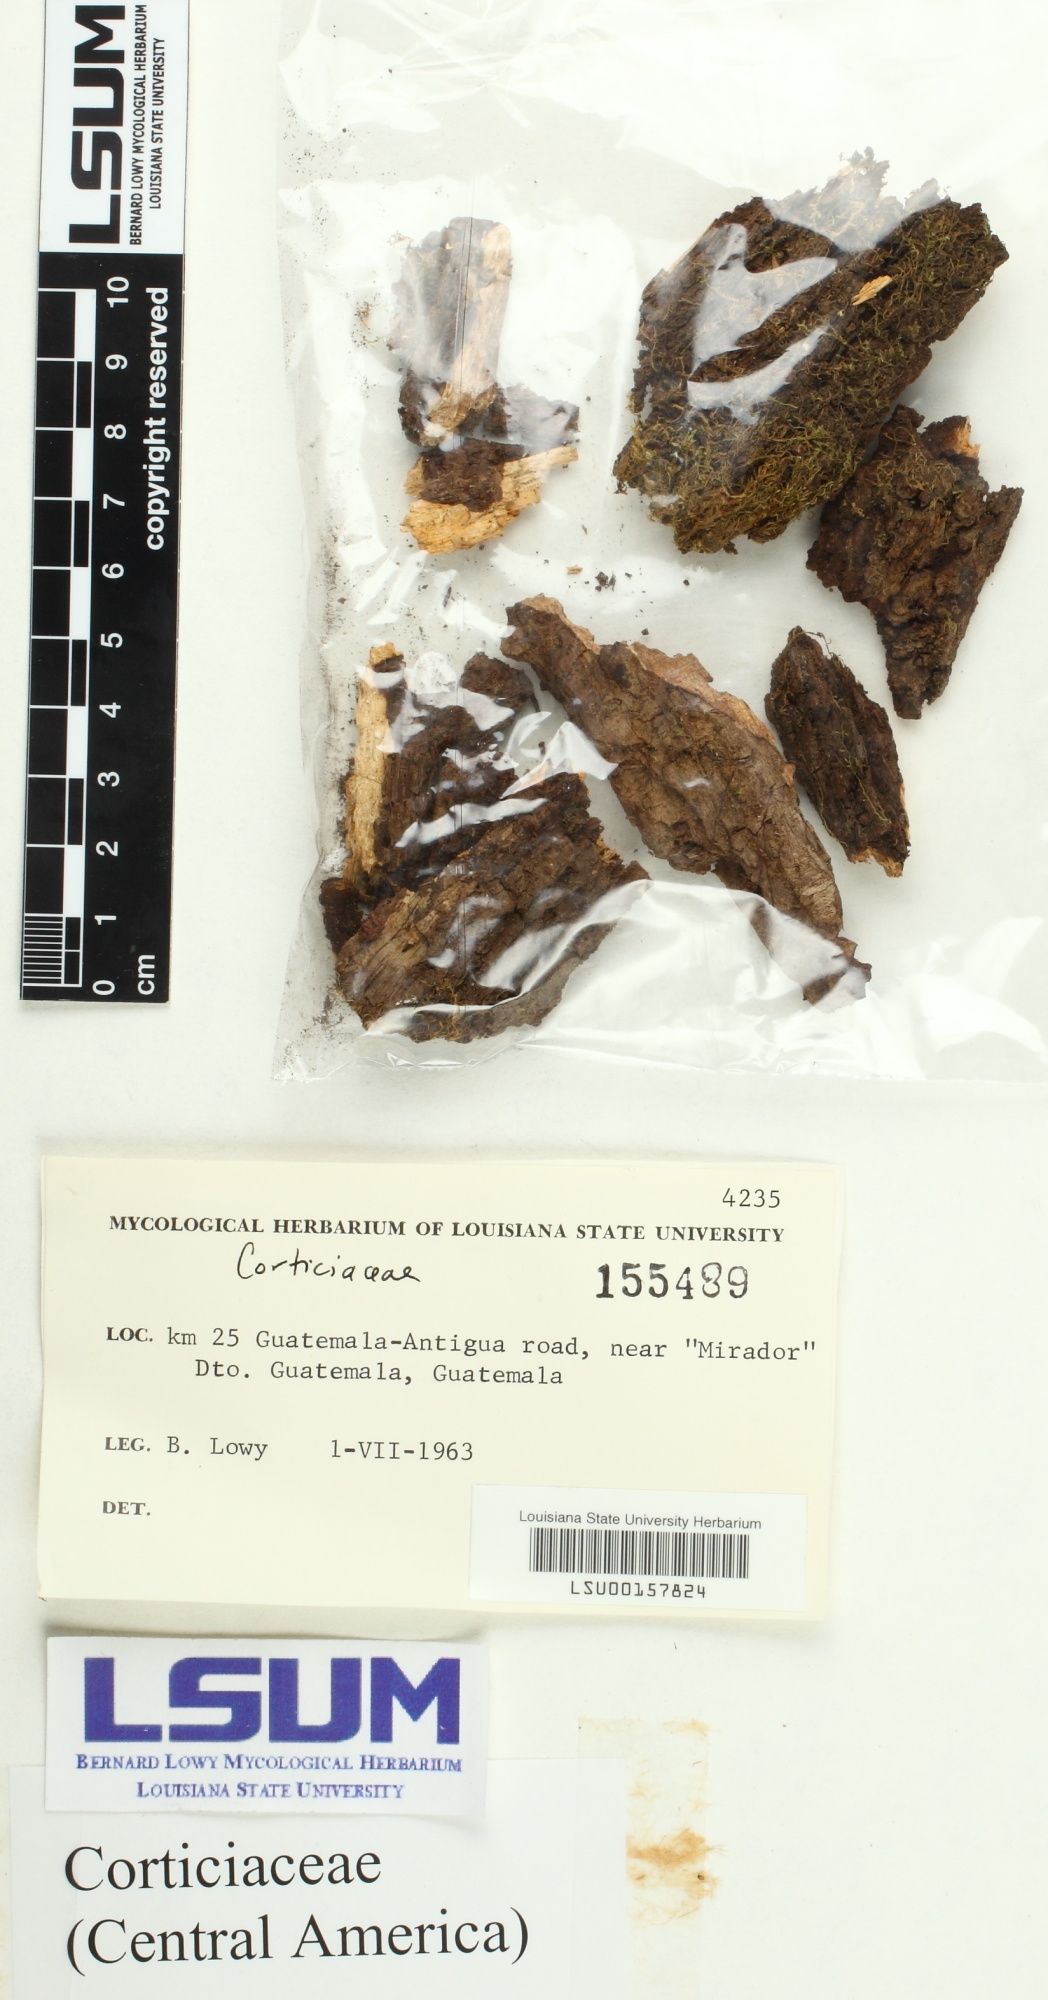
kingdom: Fungi
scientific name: Fungi
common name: Fungi
